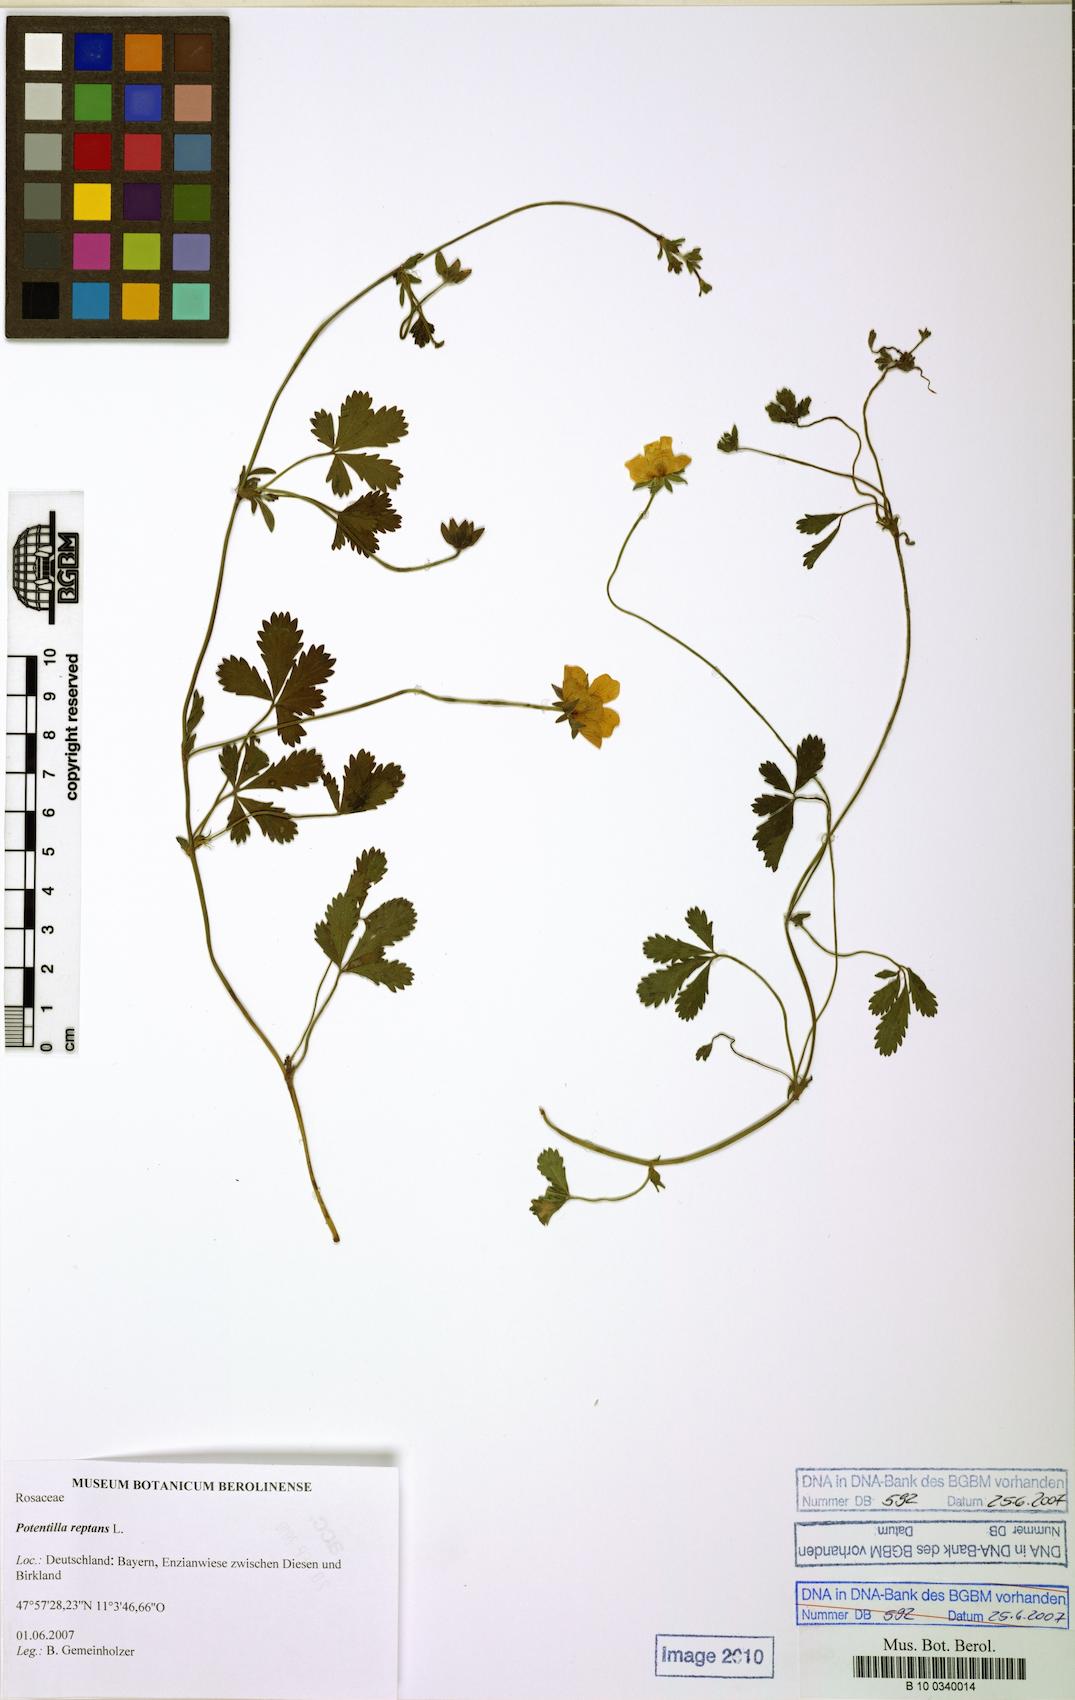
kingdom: Plantae
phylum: Tracheophyta
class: Magnoliopsida
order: Rosales
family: Rosaceae
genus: Potentilla
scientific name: Potentilla reptans
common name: Creeping cinquefoil
